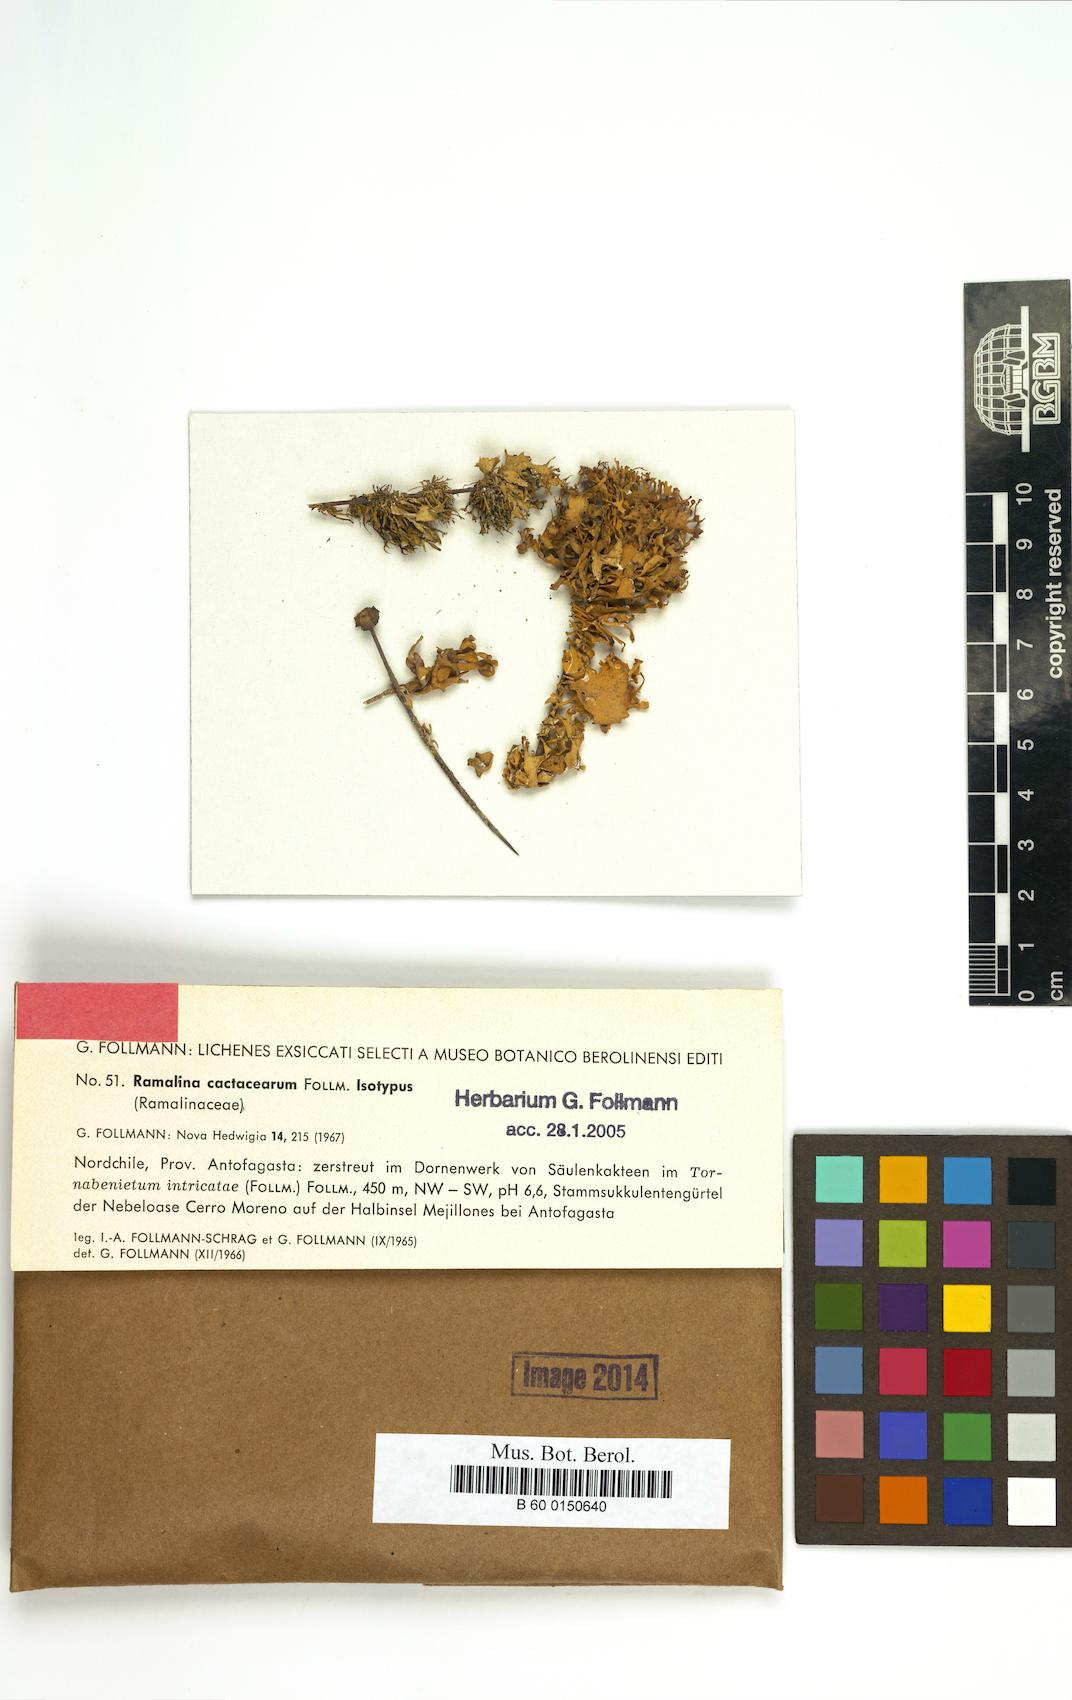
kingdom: Fungi
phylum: Ascomycota
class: Lecanoromycetes
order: Lecanorales
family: Ramalinaceae
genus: Ramalina
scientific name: Ramalina cactacearum
